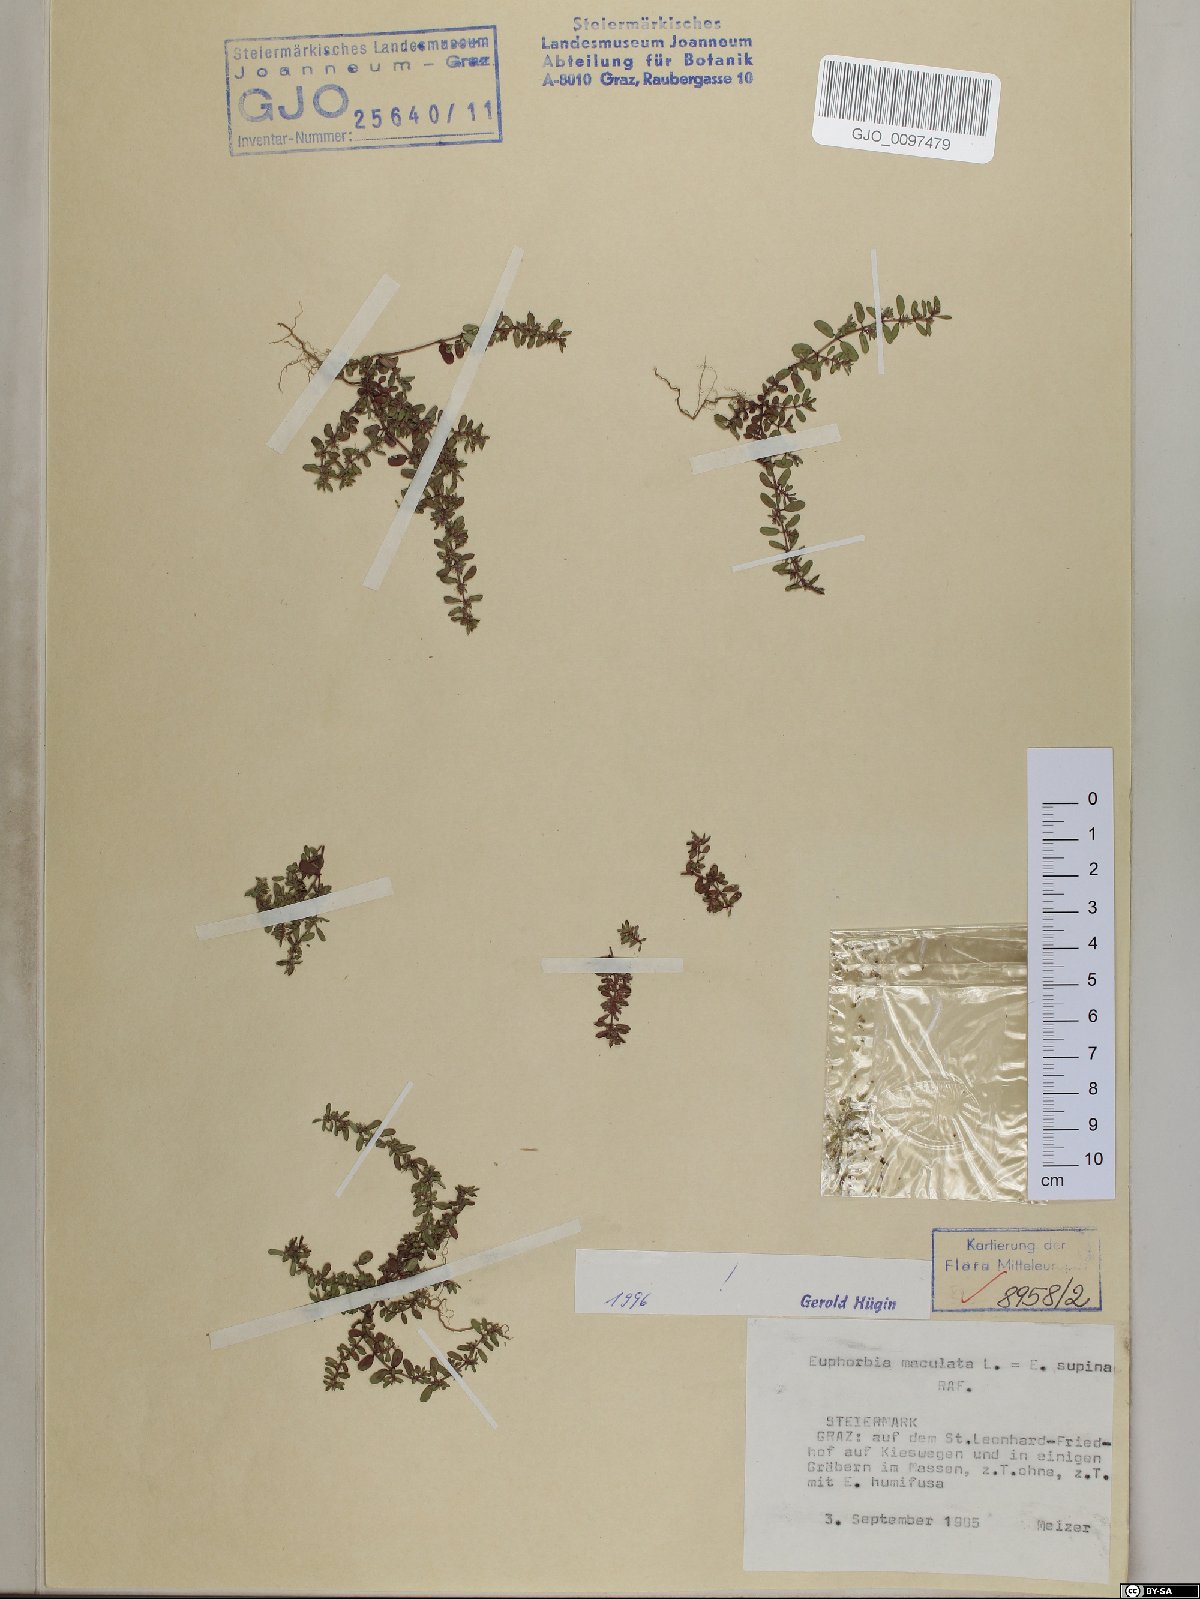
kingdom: Plantae
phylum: Tracheophyta
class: Magnoliopsida
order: Malpighiales
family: Euphorbiaceae
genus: Euphorbia
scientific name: Euphorbia maculata
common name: Spotted spurge
